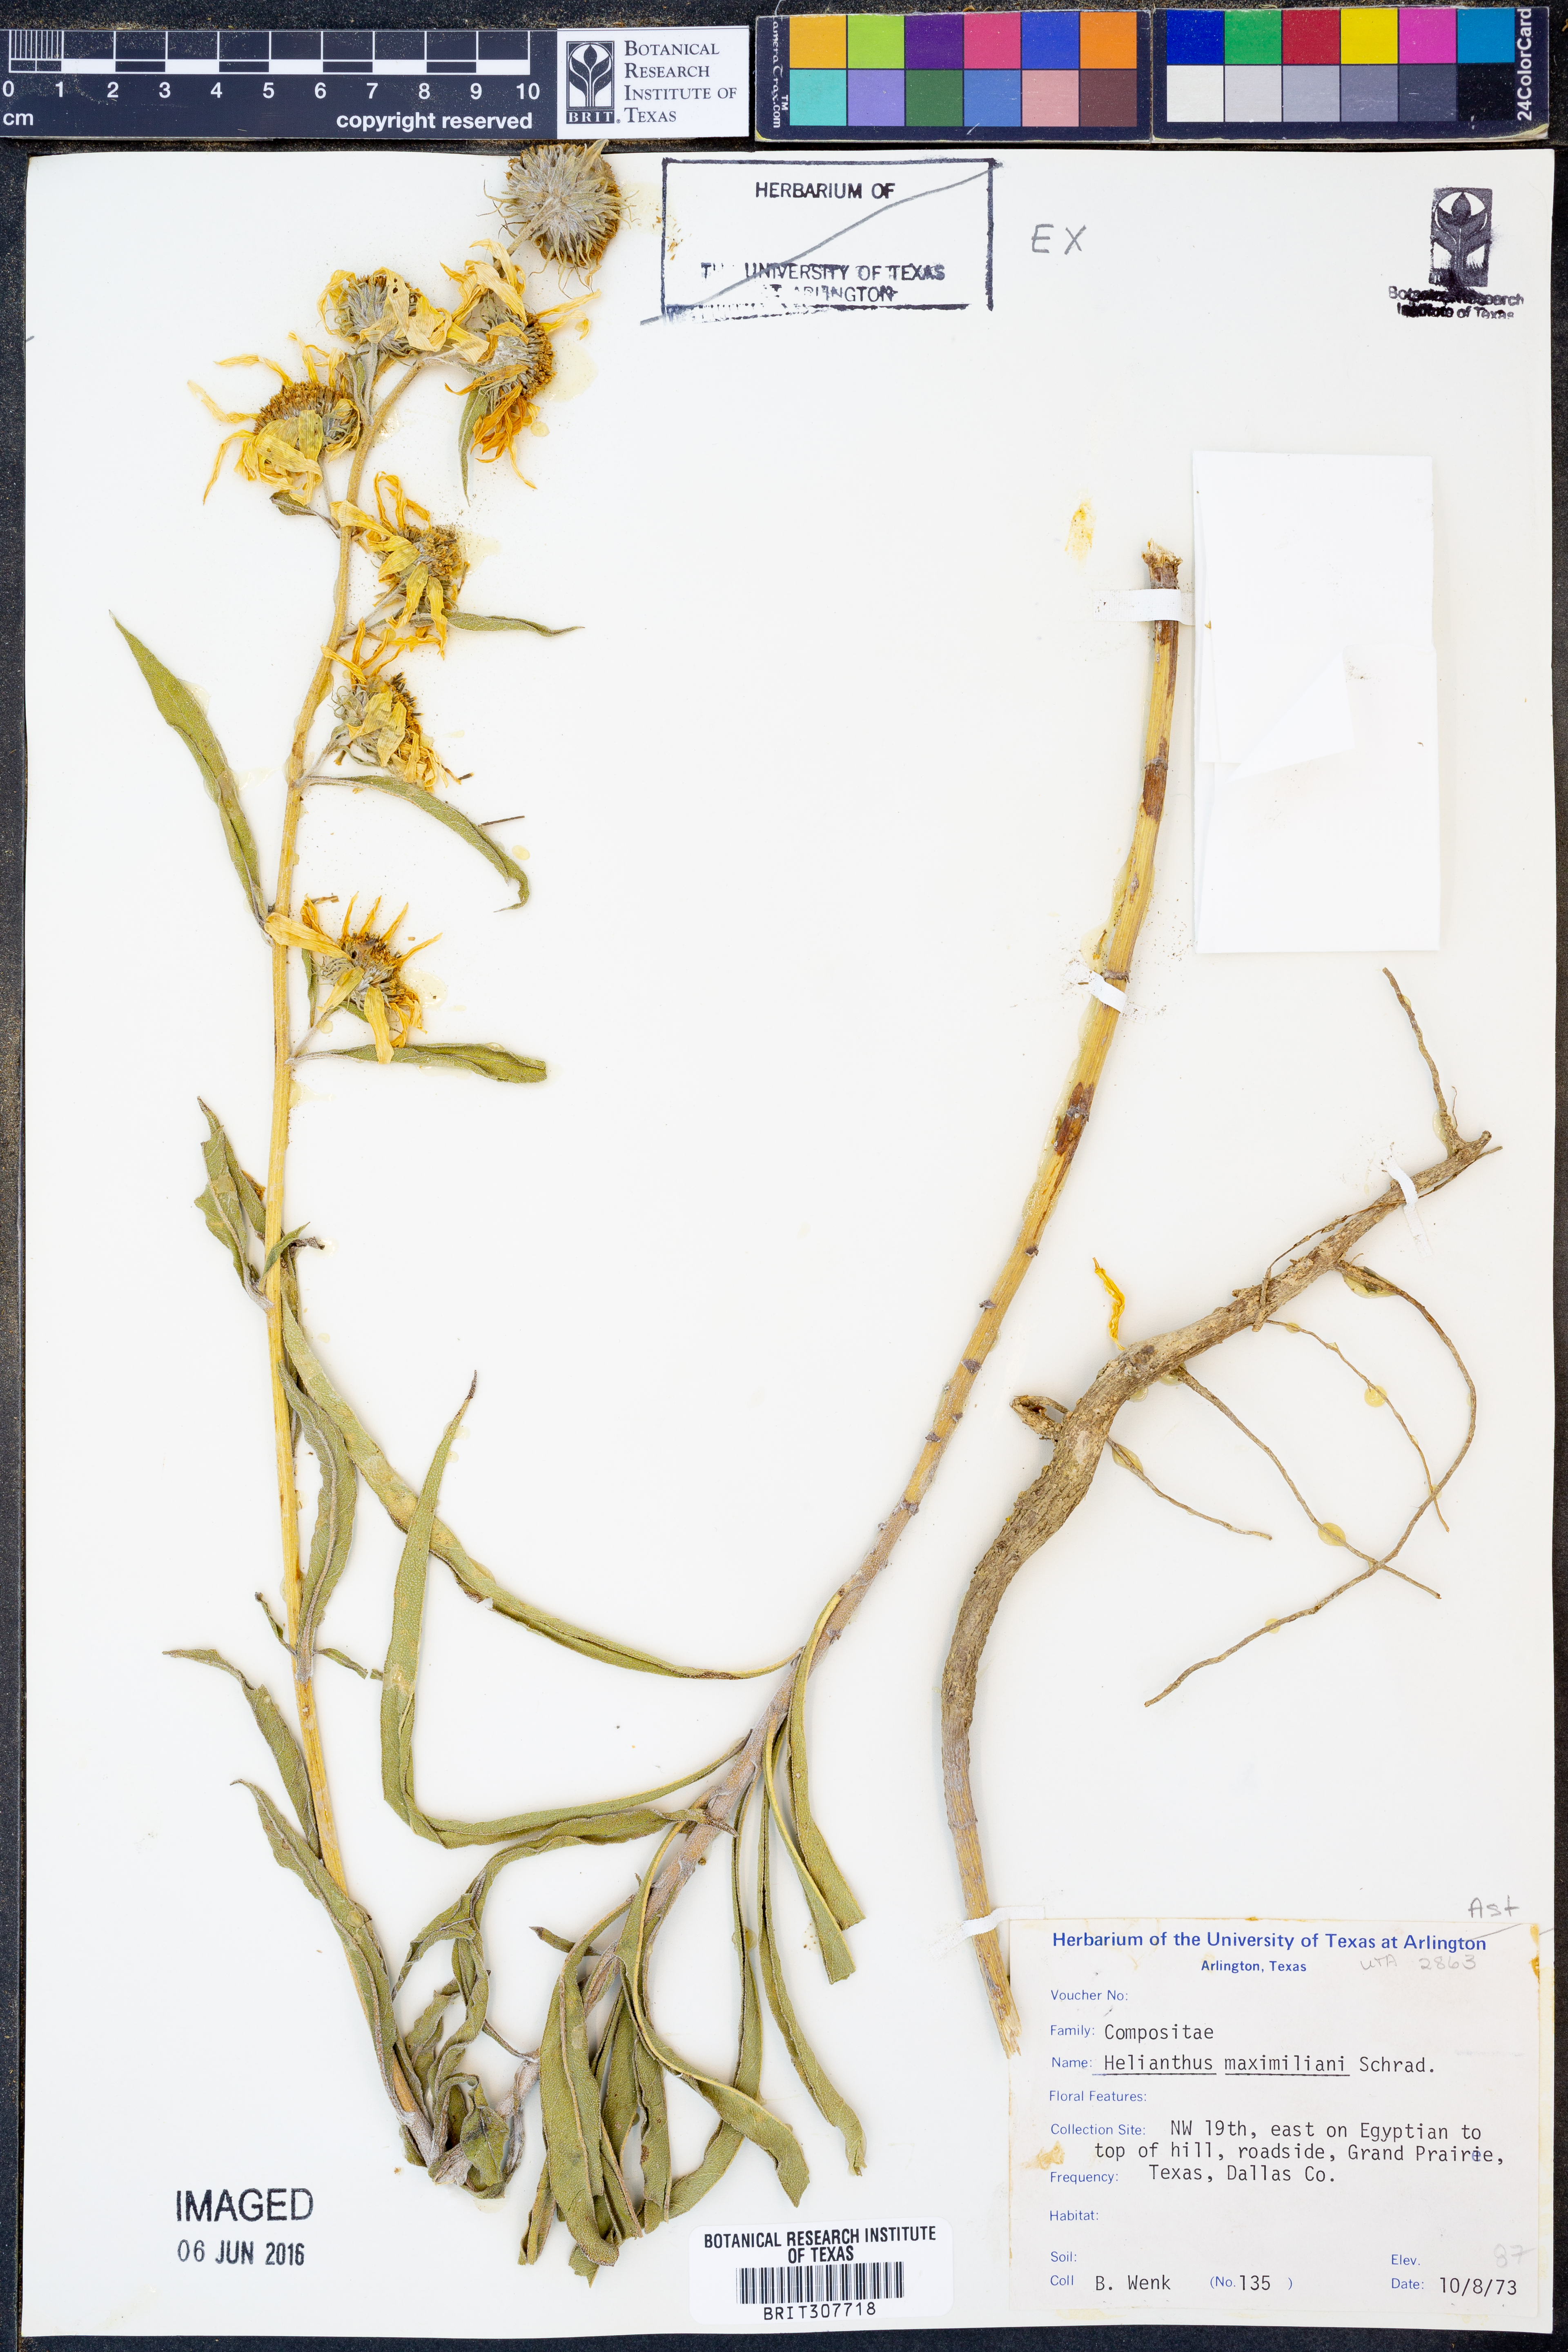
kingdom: Plantae
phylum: Tracheophyta
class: Magnoliopsida
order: Asterales
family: Asteraceae
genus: Helianthus
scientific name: Helianthus maximiliani
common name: Maximilian's sunflower
